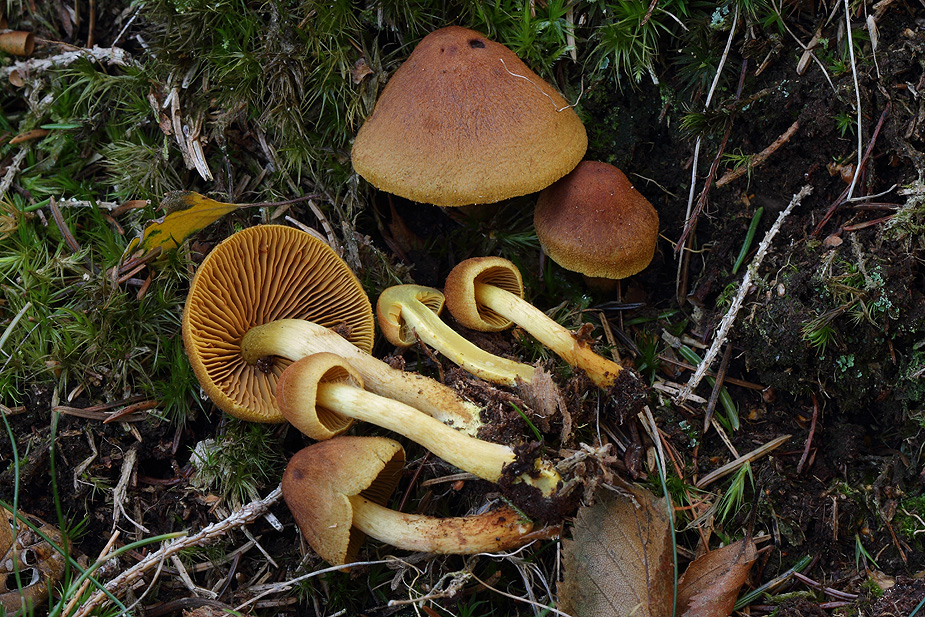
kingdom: Fungi
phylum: Basidiomycota
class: Agaricomycetes
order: Agaricales
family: Cortinariaceae
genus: Cortinarius
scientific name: Cortinarius malicorius
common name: grønkødet slørhat
